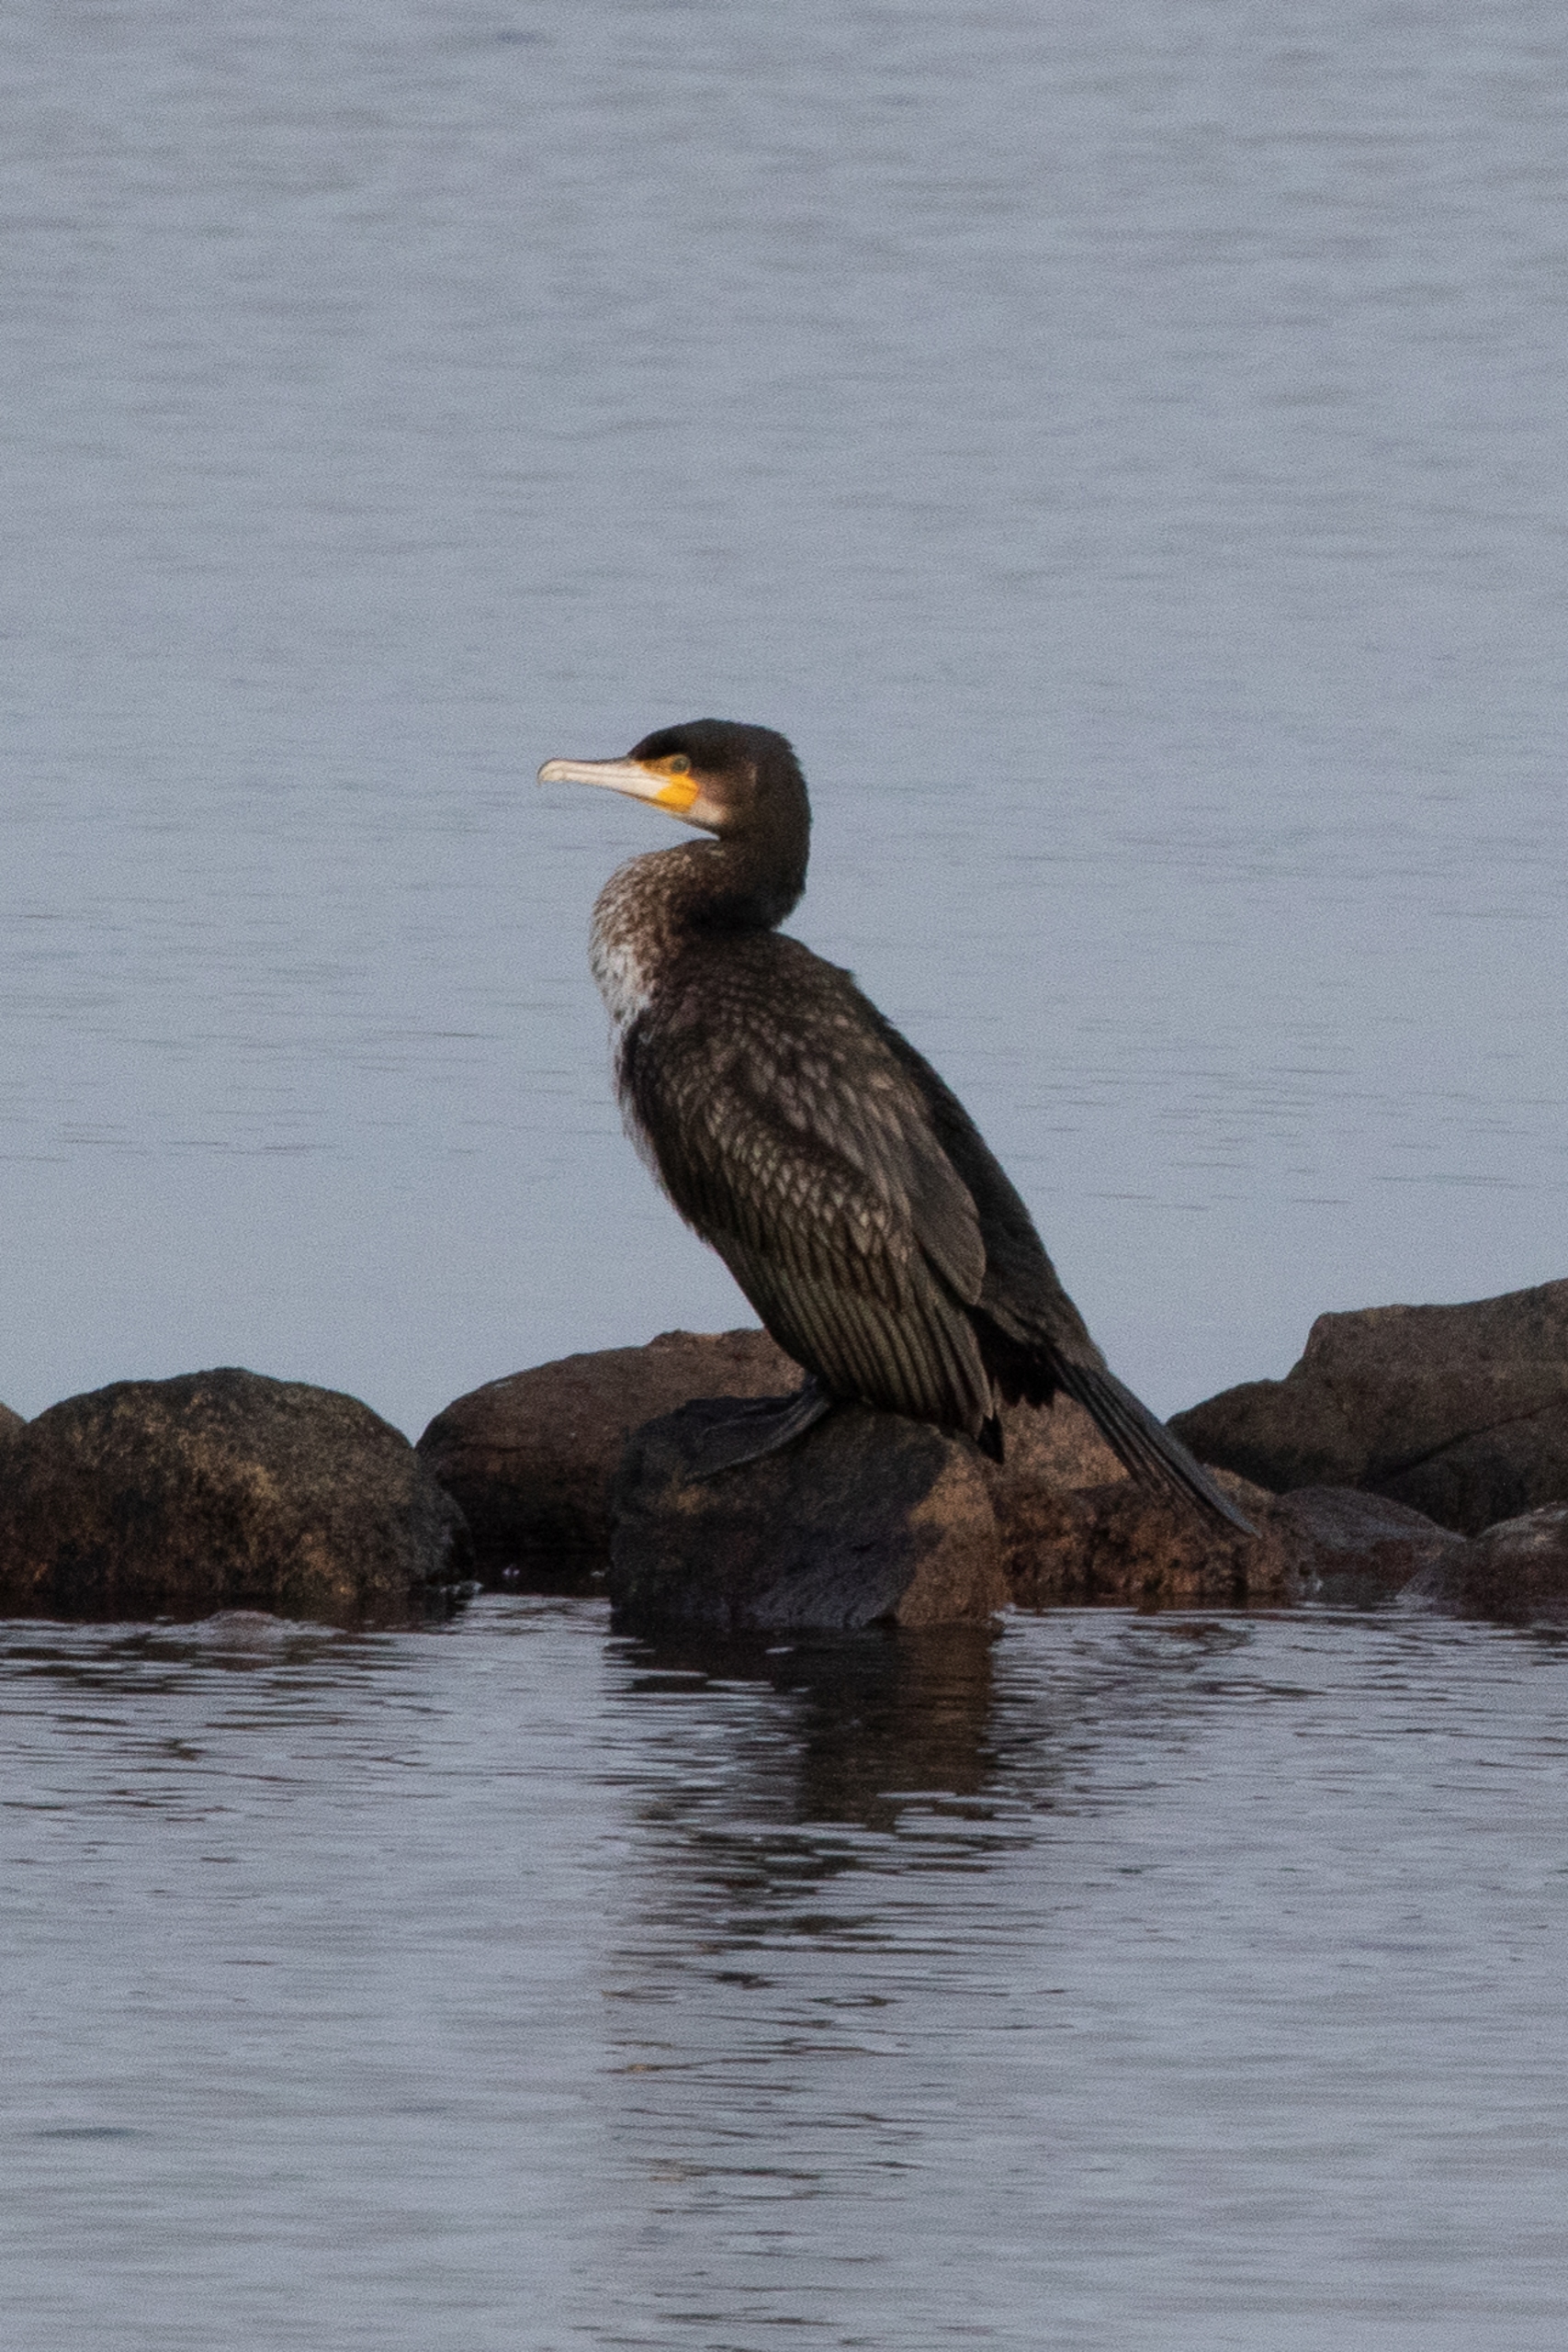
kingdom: Animalia
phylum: Chordata
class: Aves
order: Suliformes
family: Phalacrocoracidae
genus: Phalacrocorax
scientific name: Phalacrocorax carbo
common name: Skarv
